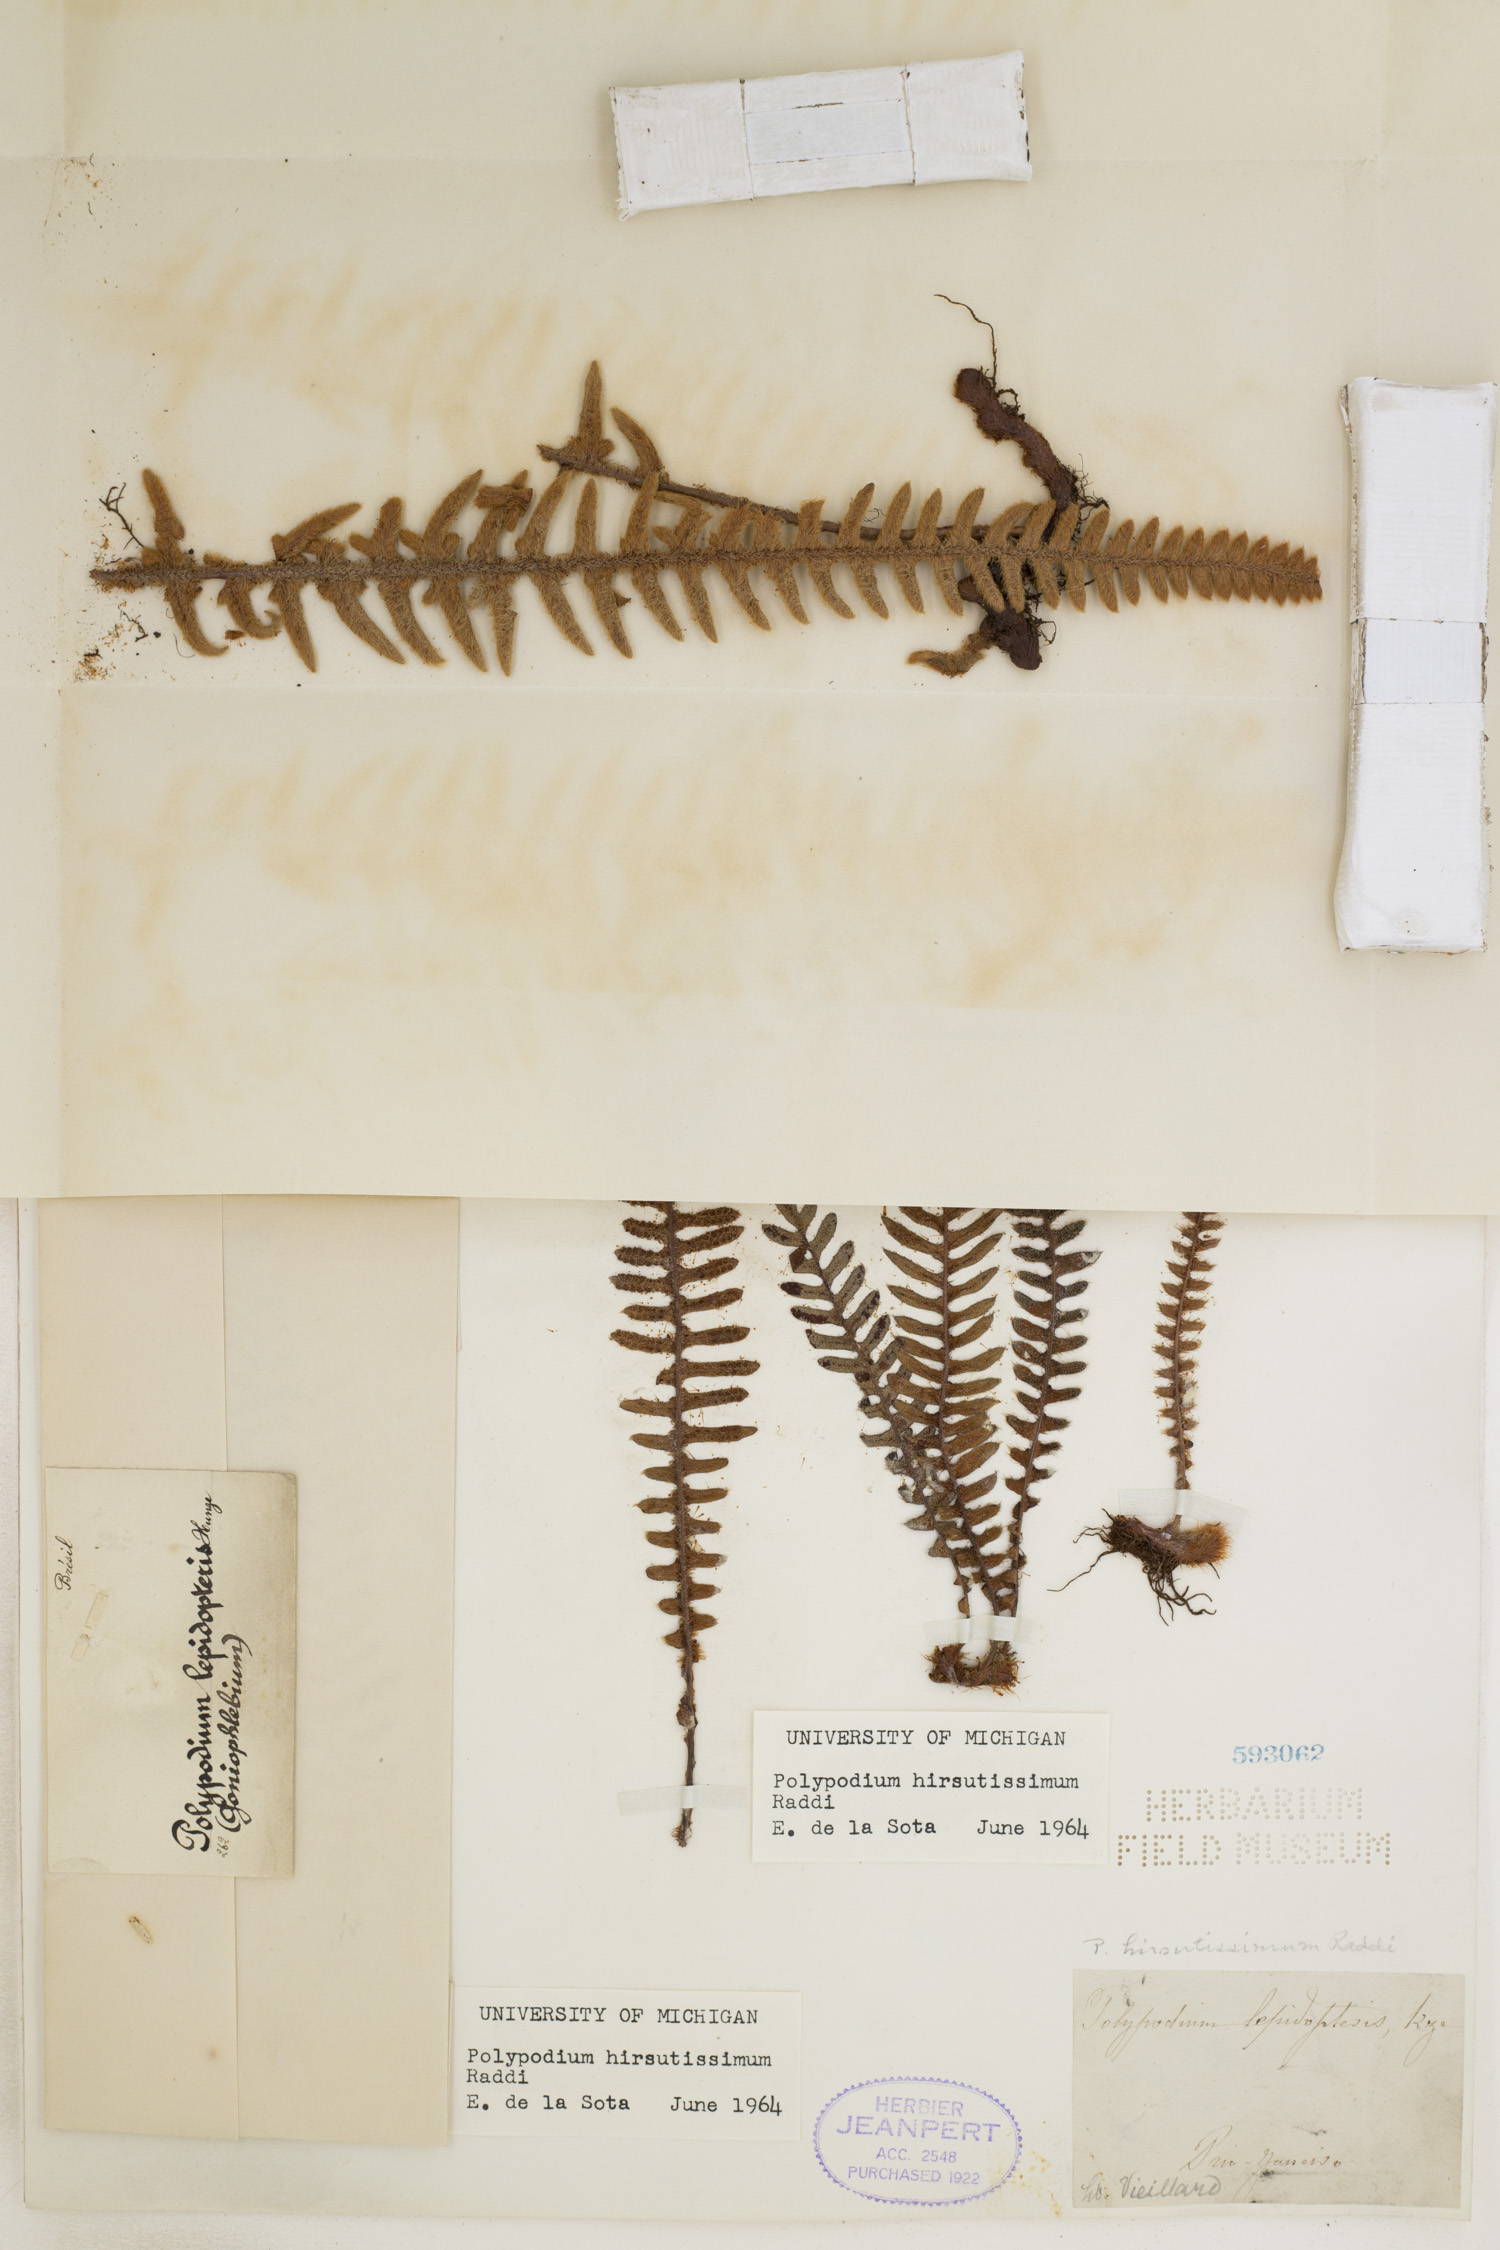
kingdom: Plantae
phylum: Tracheophyta
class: Polypodiopsida
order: Polypodiales
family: Polypodiaceae
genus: Pleopeltis
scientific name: Pleopeltis minarum
